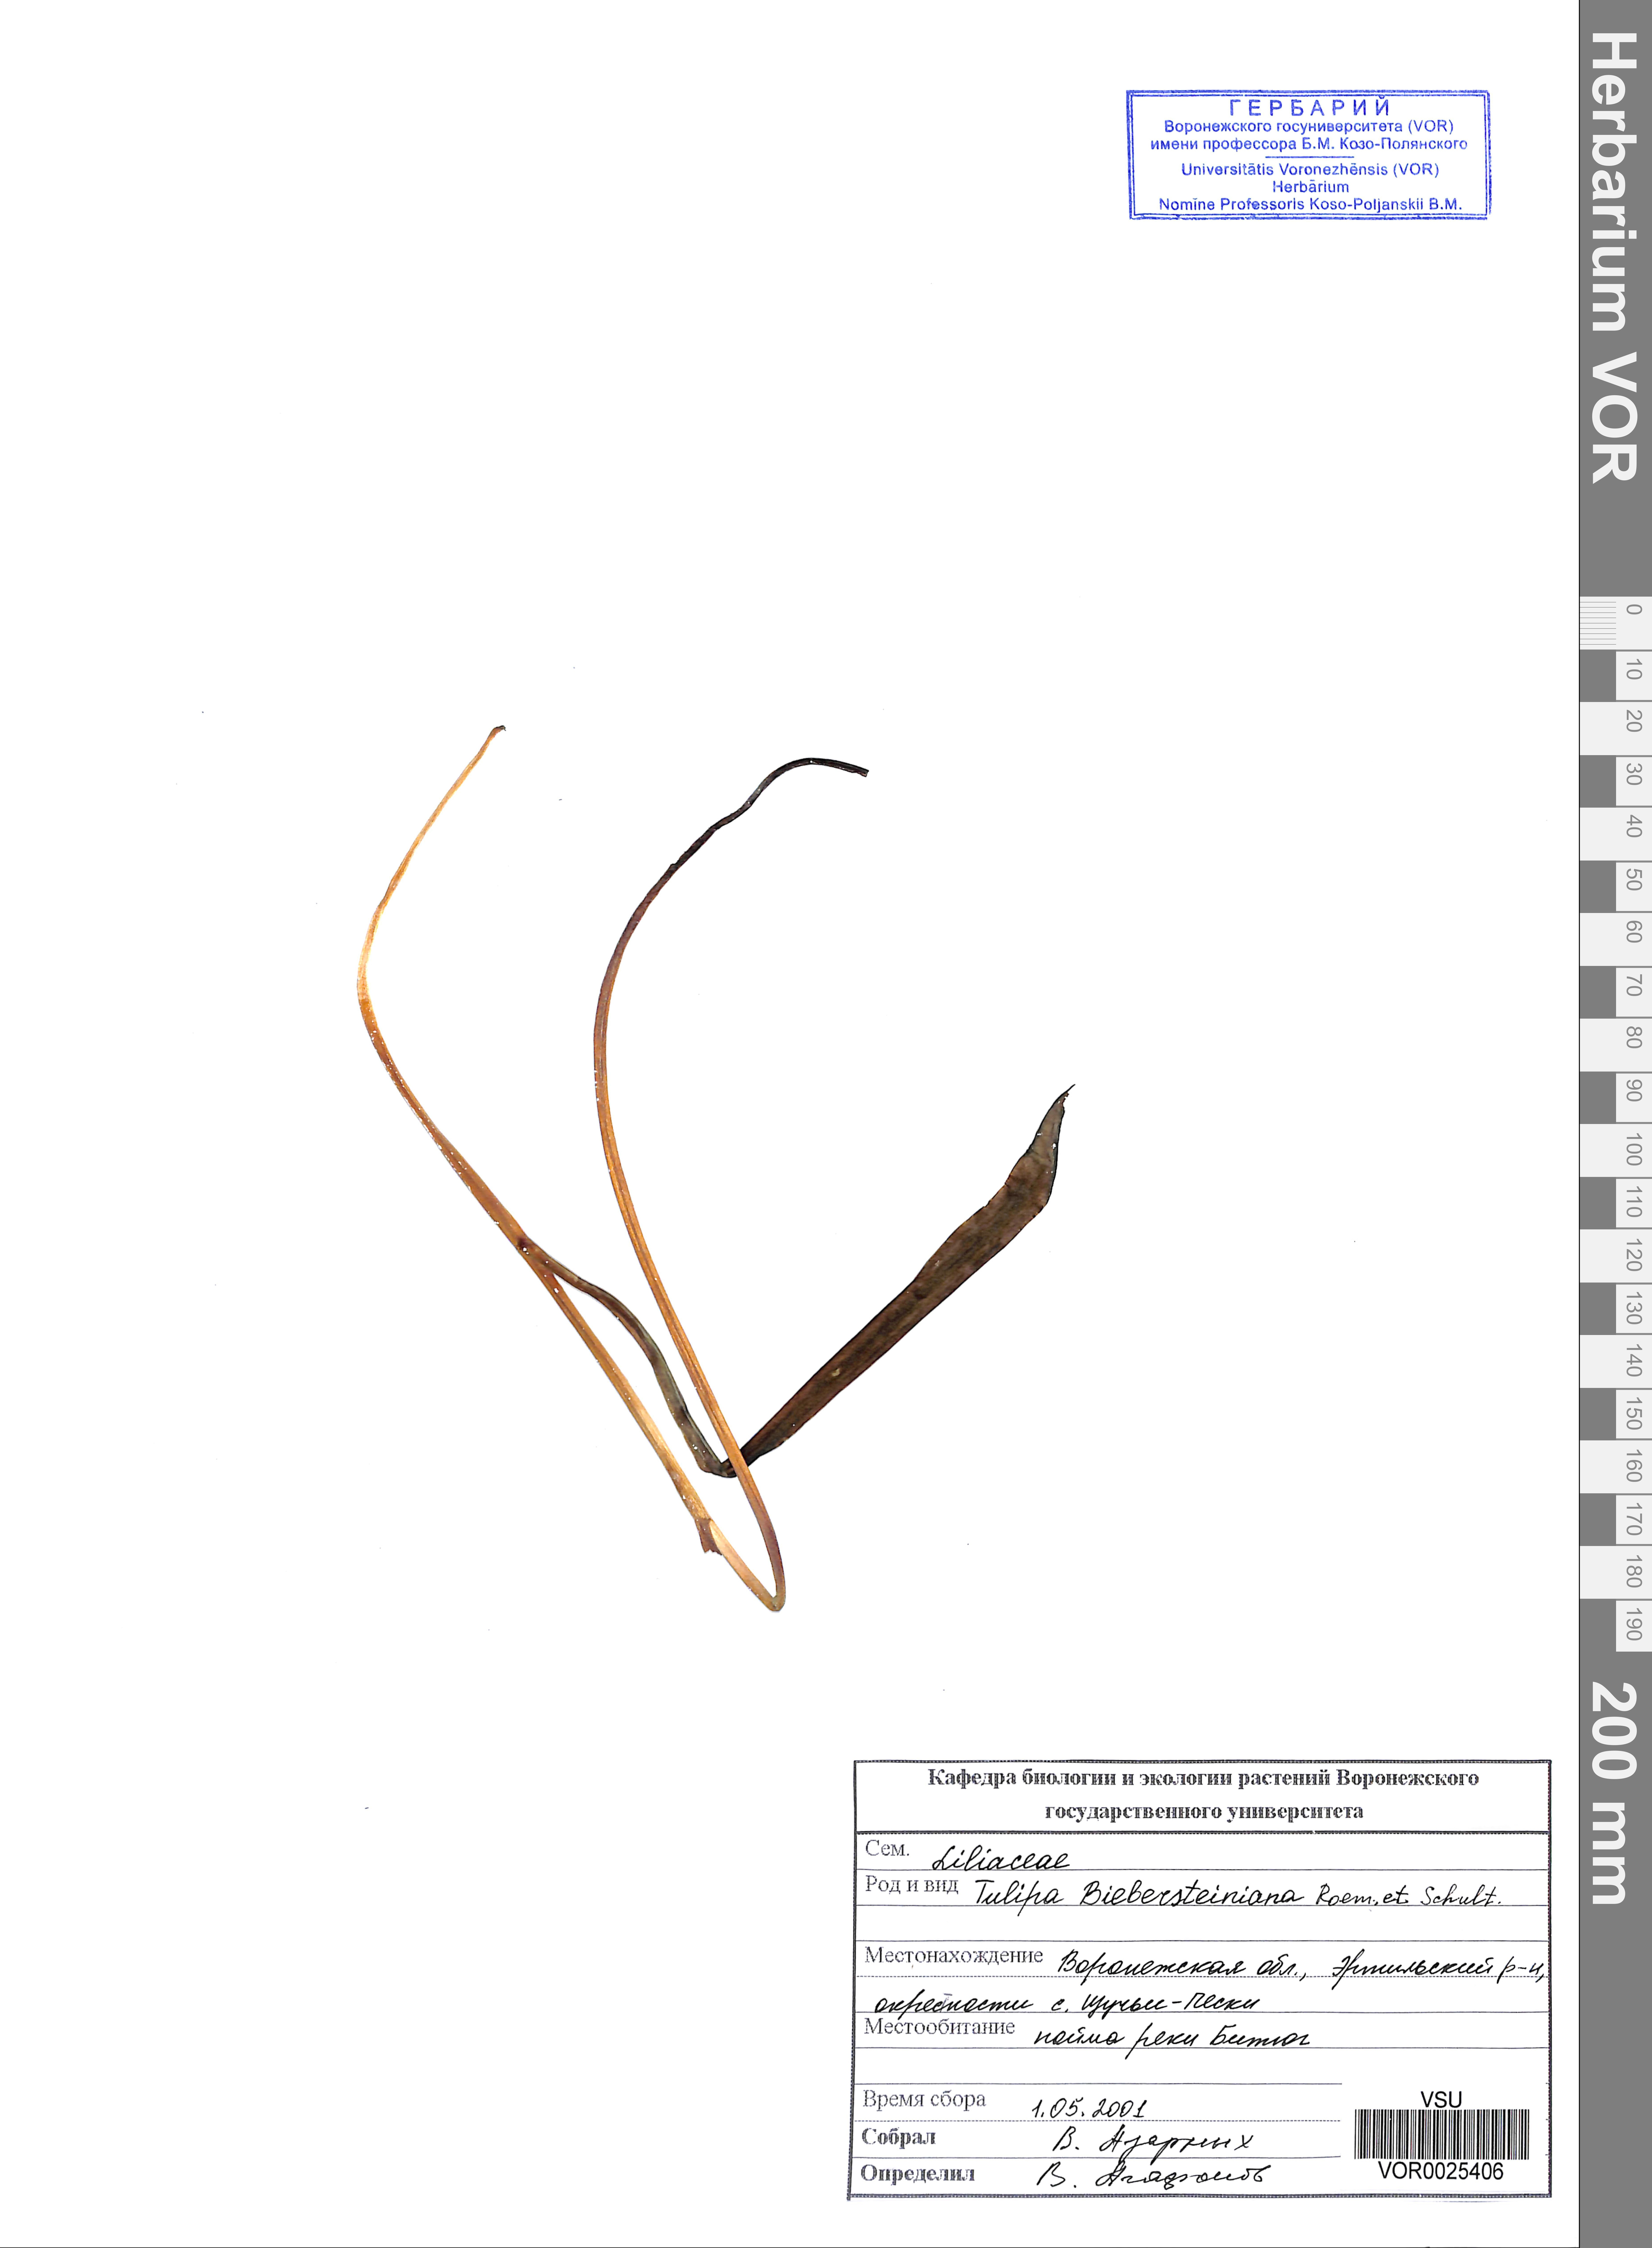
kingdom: Plantae
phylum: Tracheophyta
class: Liliopsida
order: Liliales
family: Liliaceae
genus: Tulipa
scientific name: Tulipa sylvestris
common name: Wild tulip
